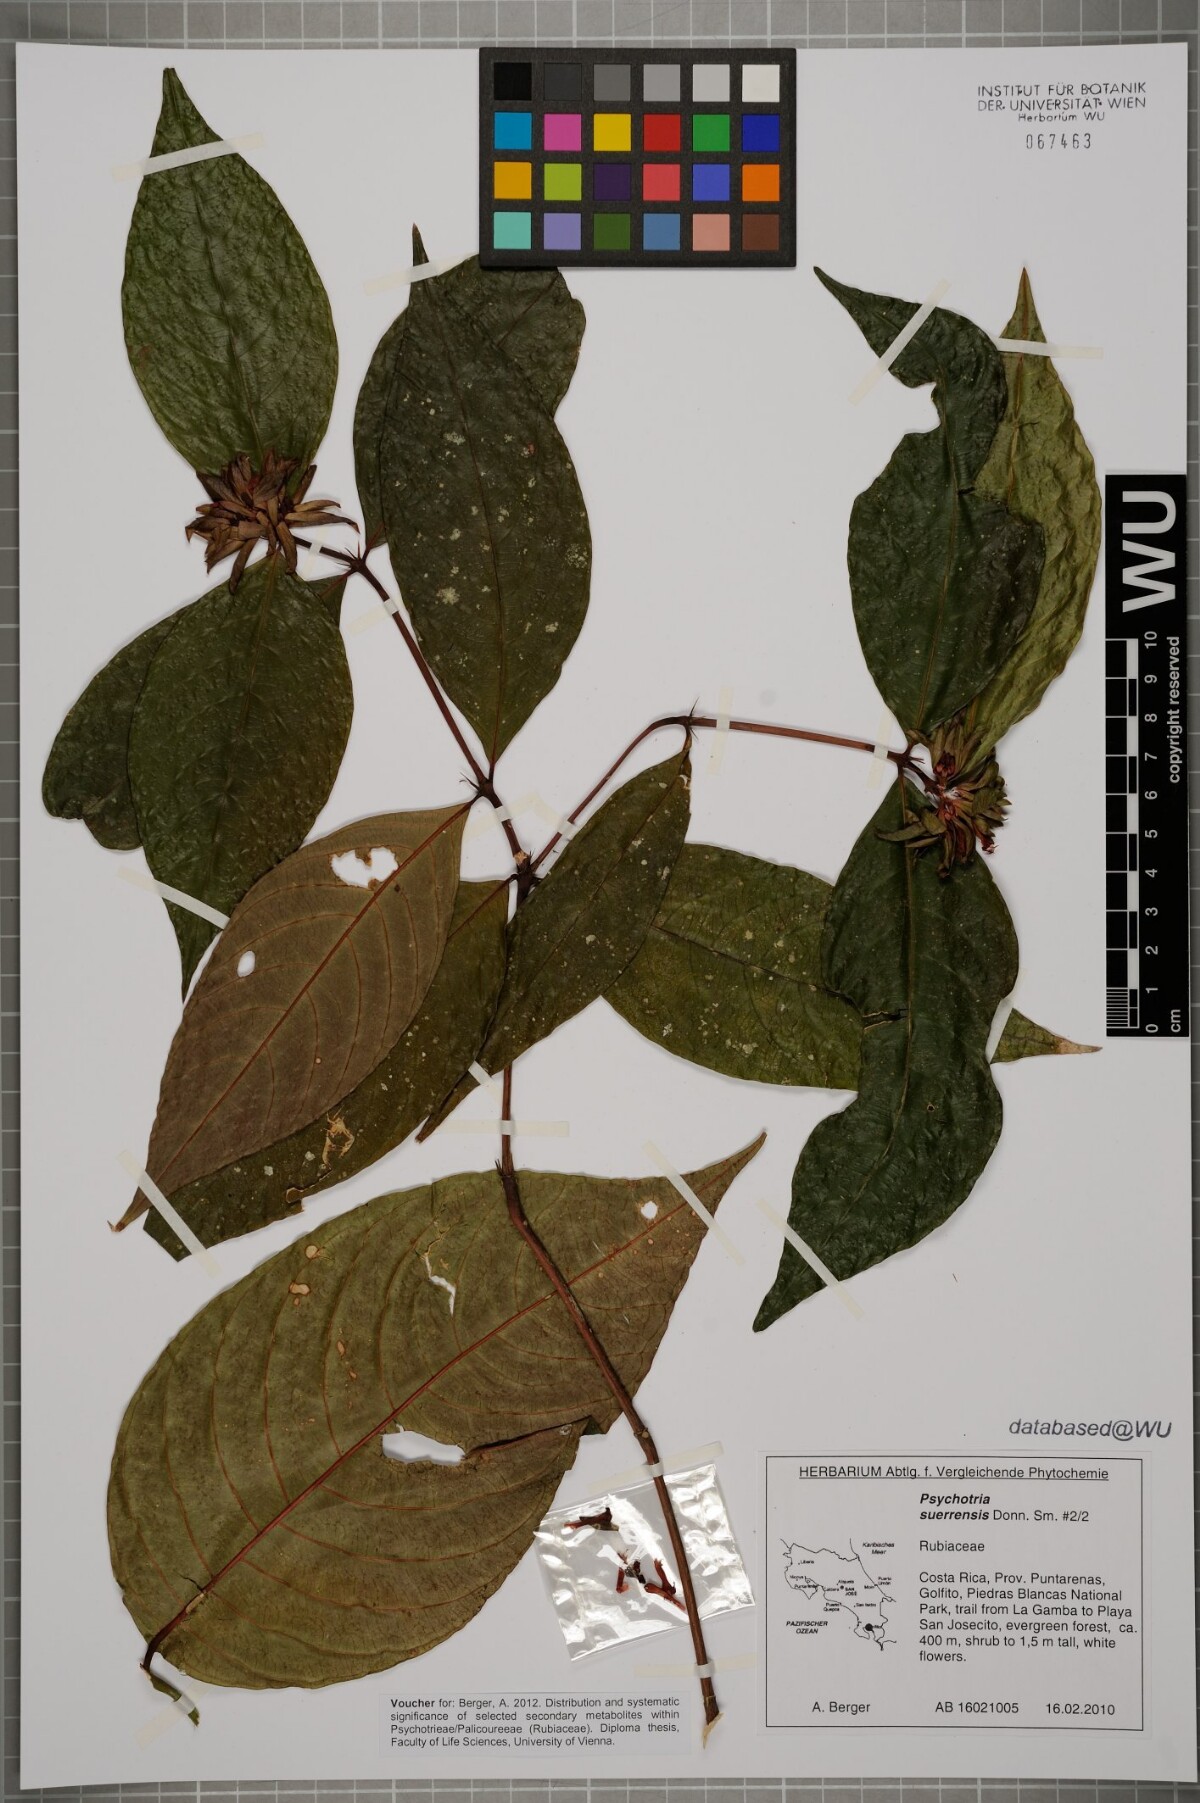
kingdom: Plantae
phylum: Tracheophyta
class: Magnoliopsida
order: Gentianales
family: Rubiaceae
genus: Palicourea
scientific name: Palicourea suerrensis
